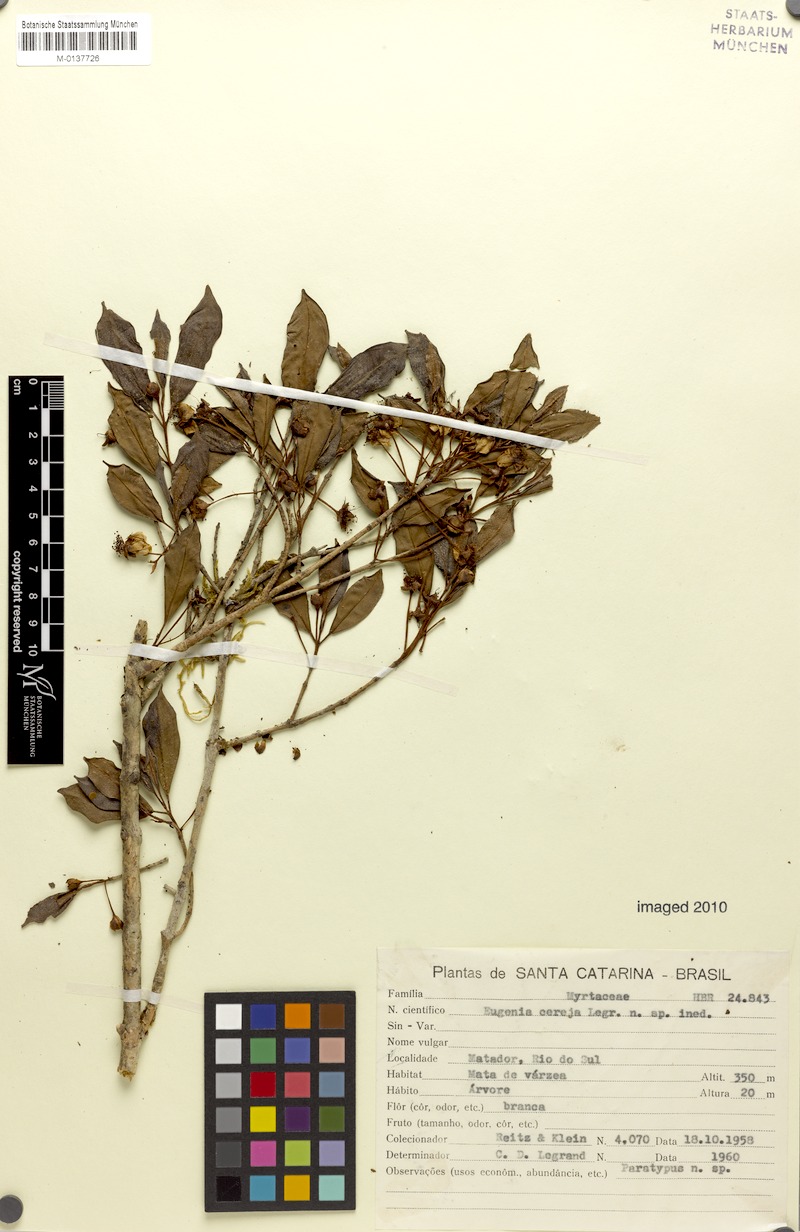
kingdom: Plantae
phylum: Tracheophyta
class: Magnoliopsida
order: Myrtales
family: Myrtaceae
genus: Eugenia
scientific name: Eugenia cereja
